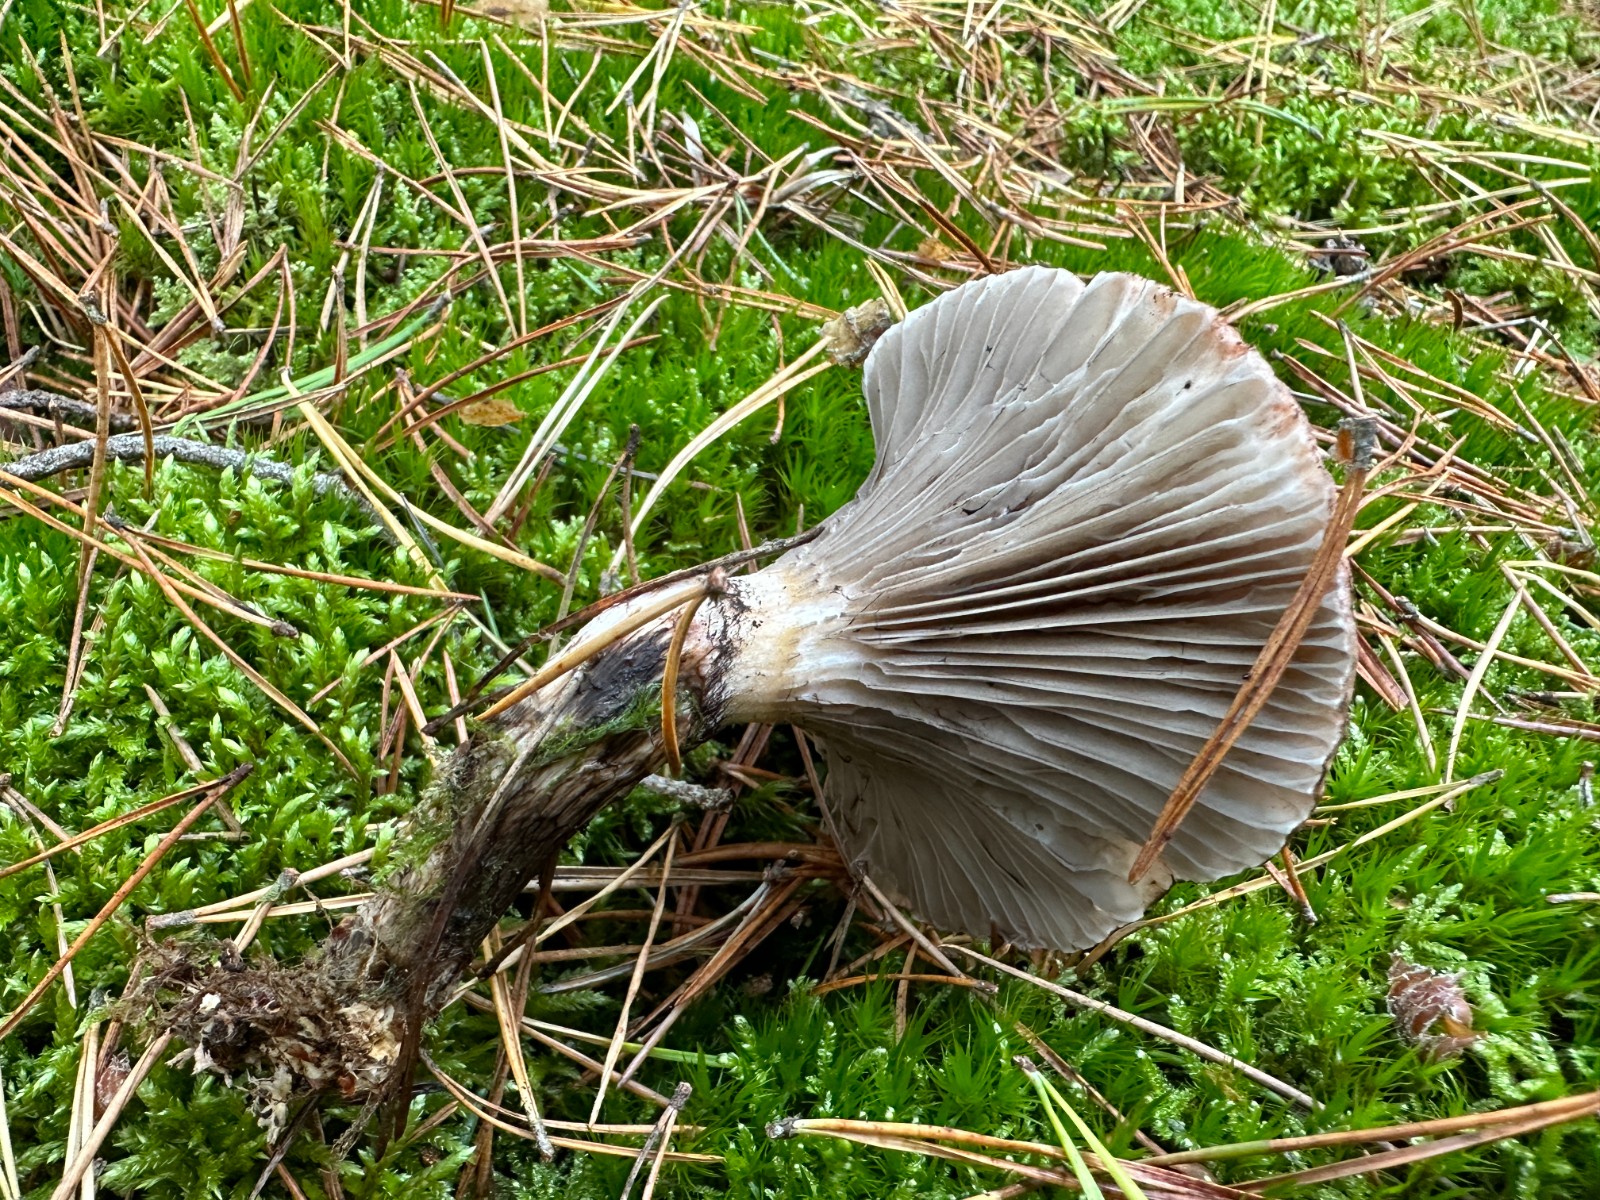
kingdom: Fungi
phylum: Basidiomycota
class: Agaricomycetes
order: Boletales
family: Gomphidiaceae
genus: Gomphidius
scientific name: Gomphidius roseus
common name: rosenrød slimslør
